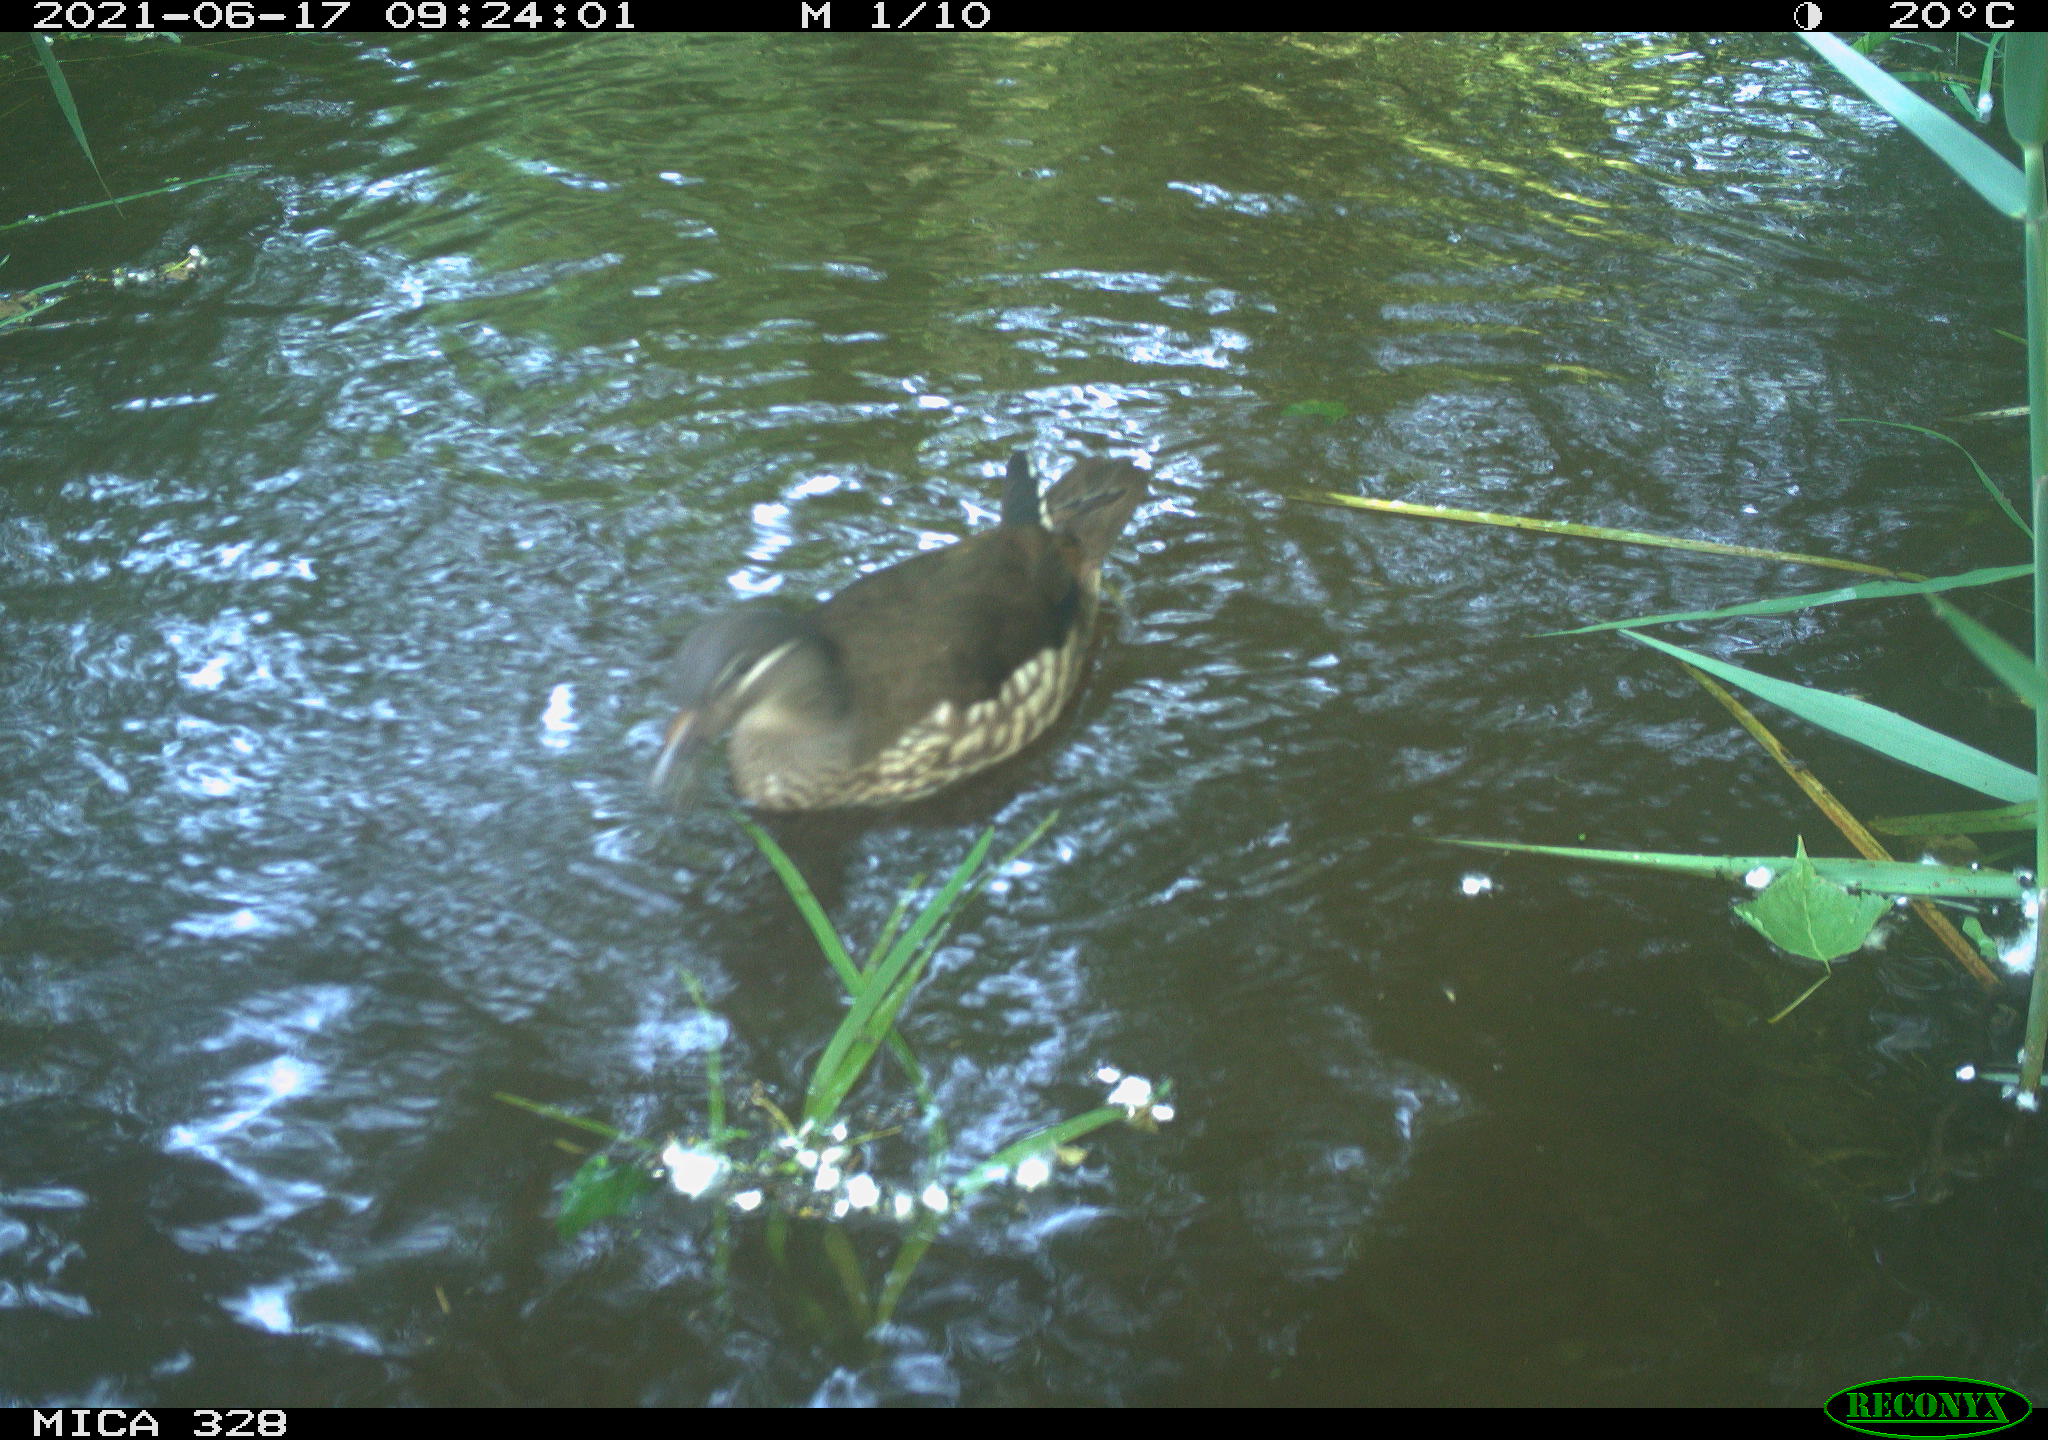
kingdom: Animalia
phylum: Chordata
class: Aves
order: Anseriformes
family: Anatidae
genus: Aix
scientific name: Aix galericulata
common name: Mandarin duck
